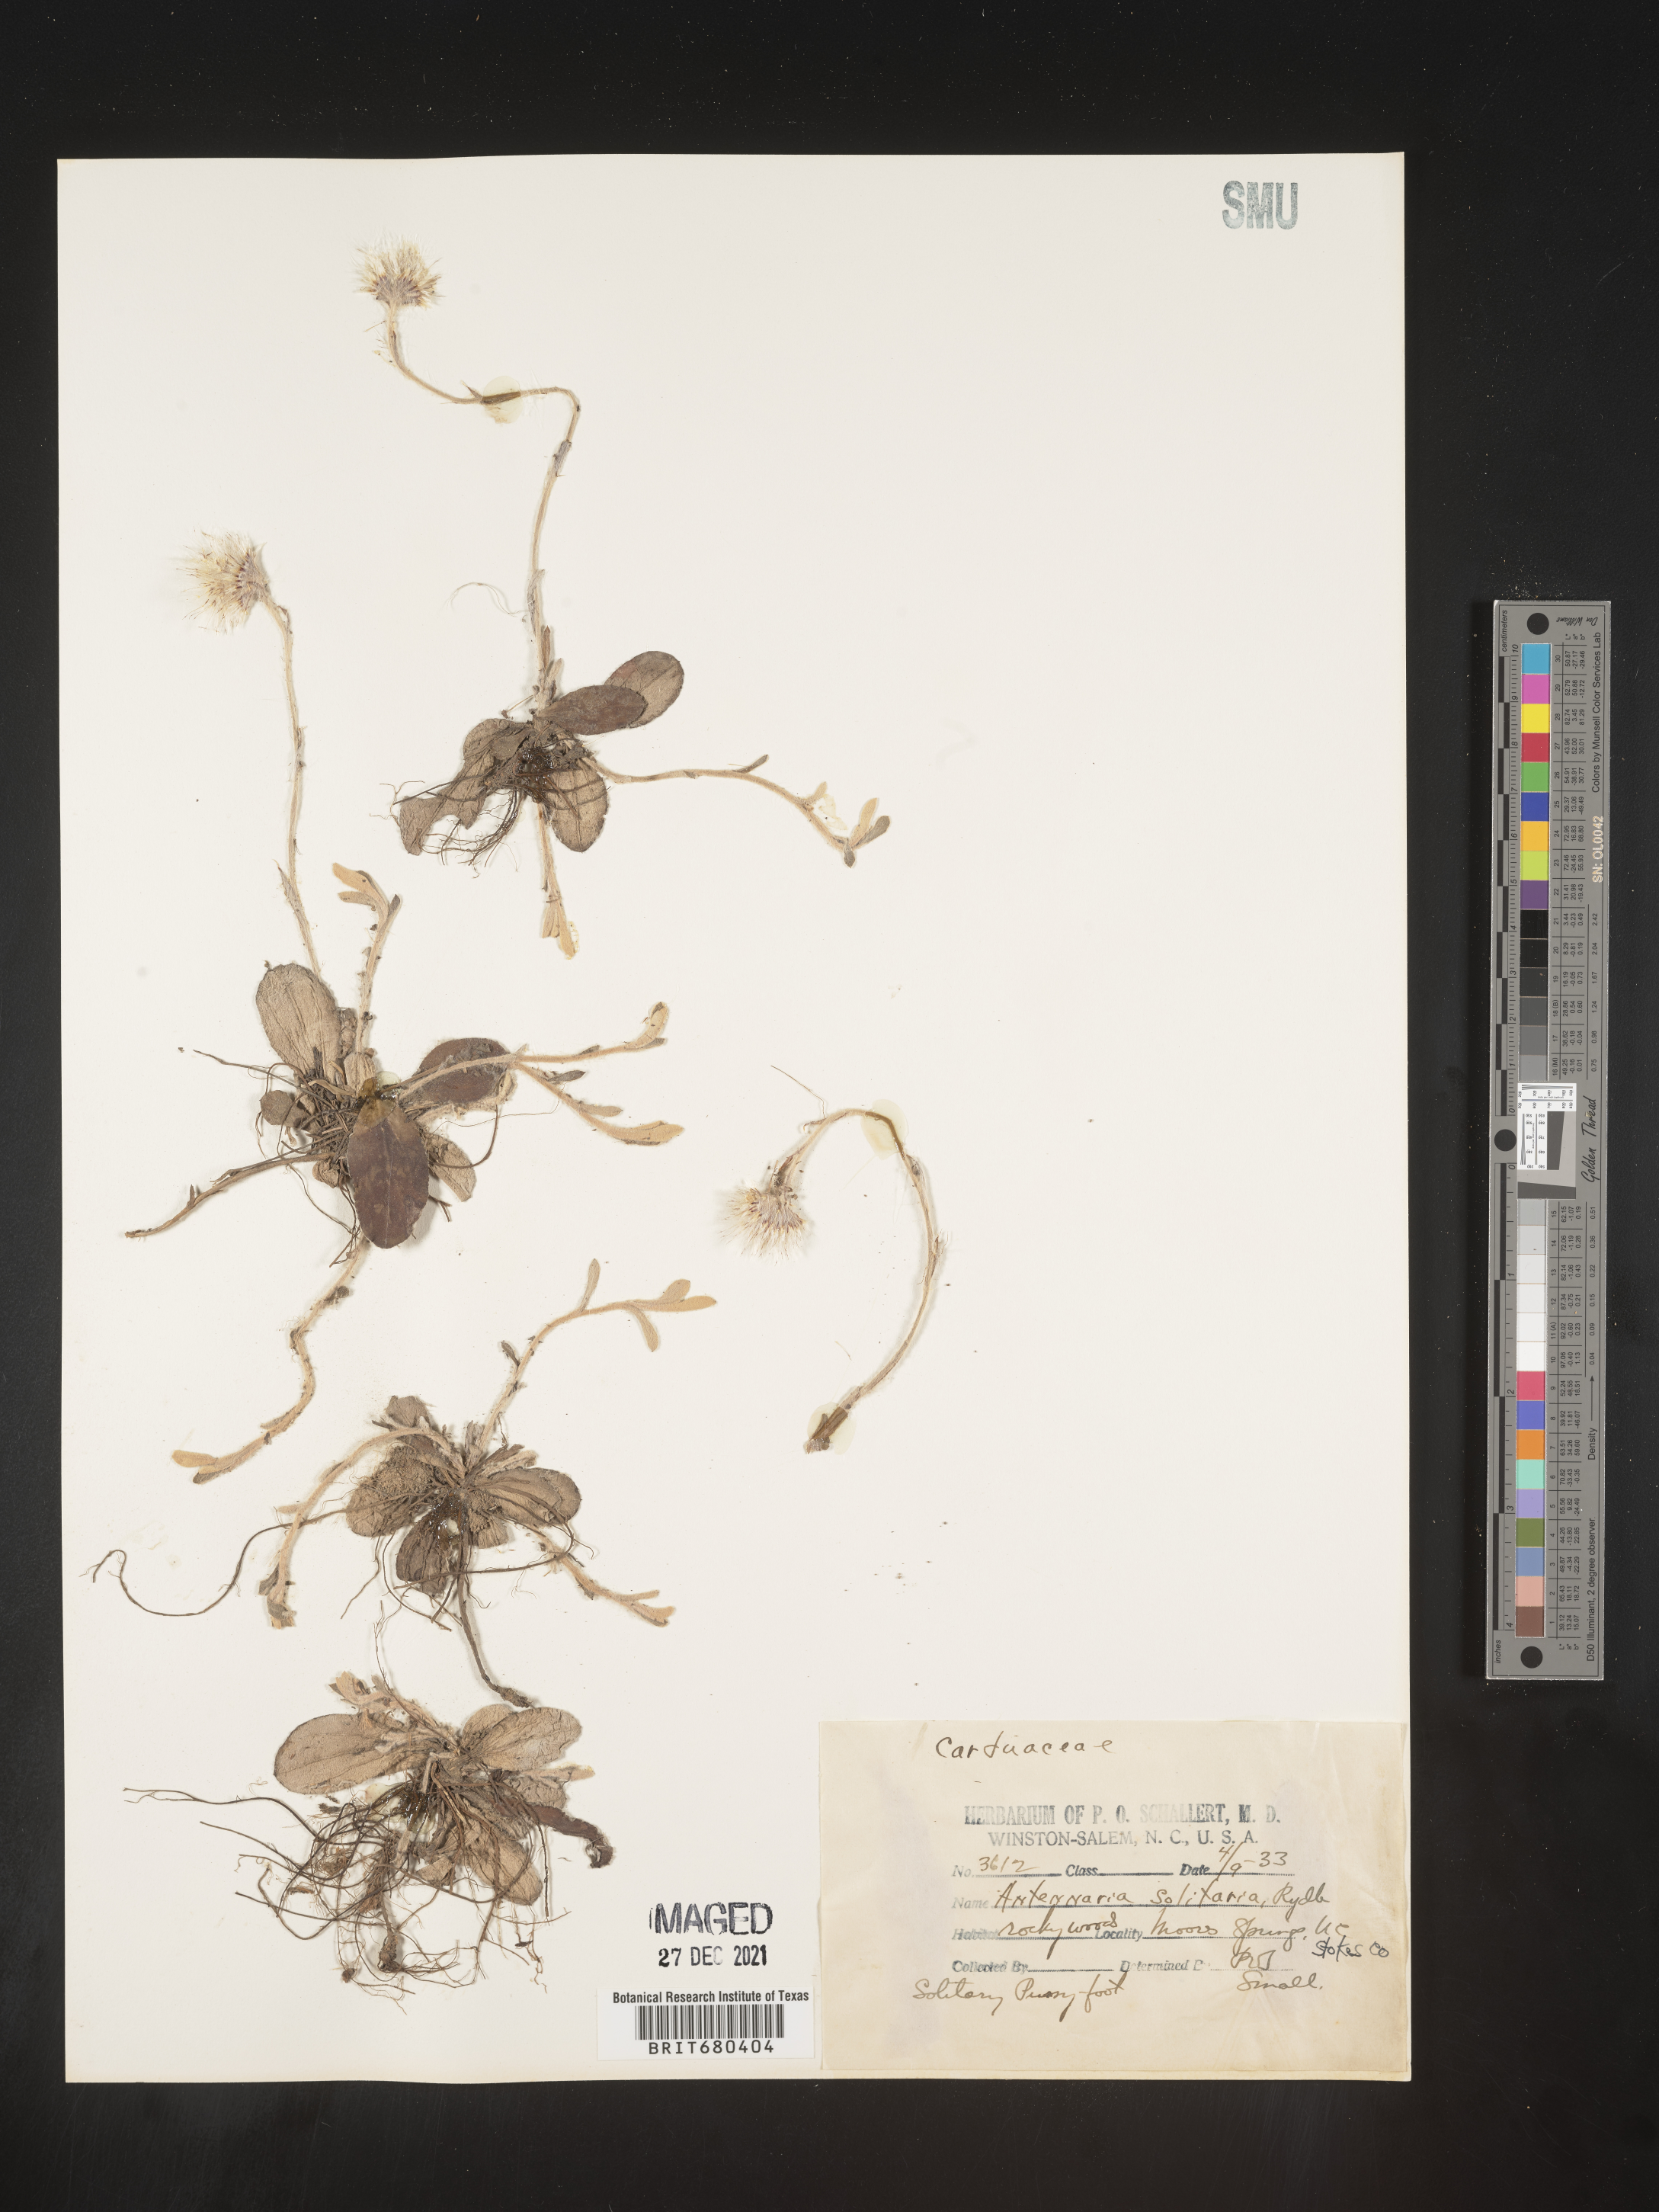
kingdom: Plantae
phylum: Tracheophyta
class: Magnoliopsida
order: Asterales
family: Asteraceae
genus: Antennaria
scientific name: Antennaria solitaria
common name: Single-head pussytoes
